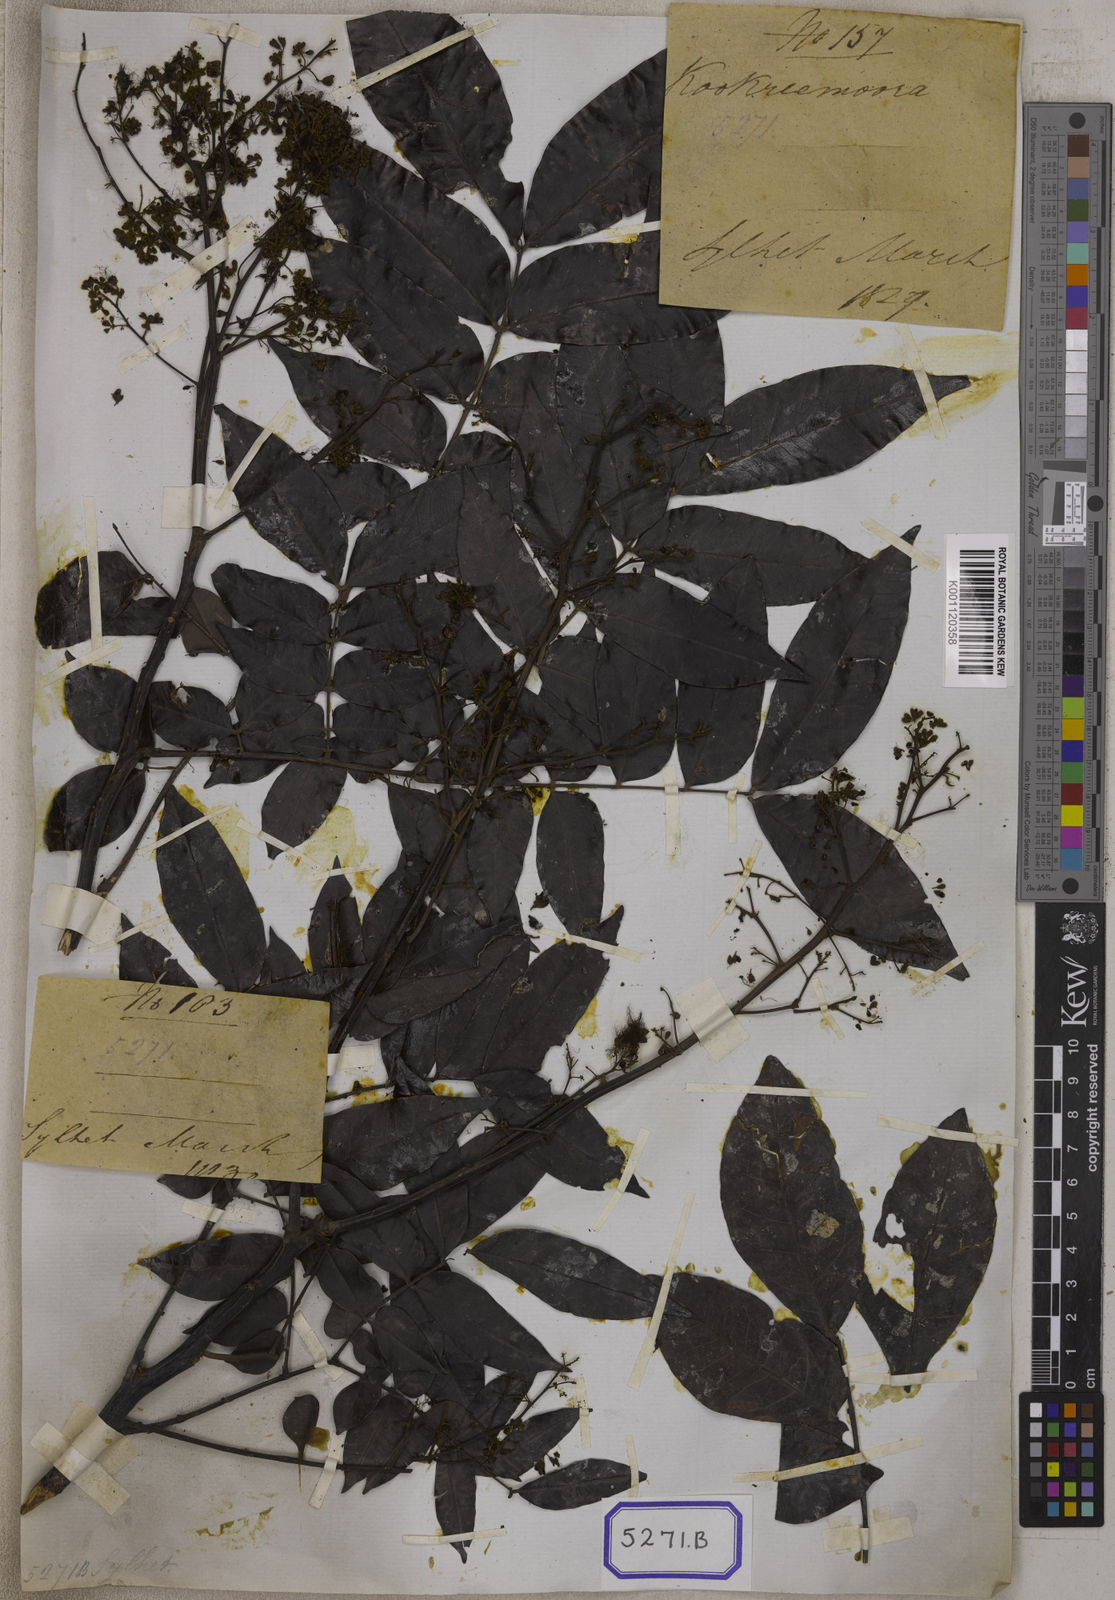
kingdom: Plantae
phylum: Tracheophyta
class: Magnoliopsida
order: Fabales
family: Fabaceae
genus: Archidendron
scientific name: Archidendron clypearia
